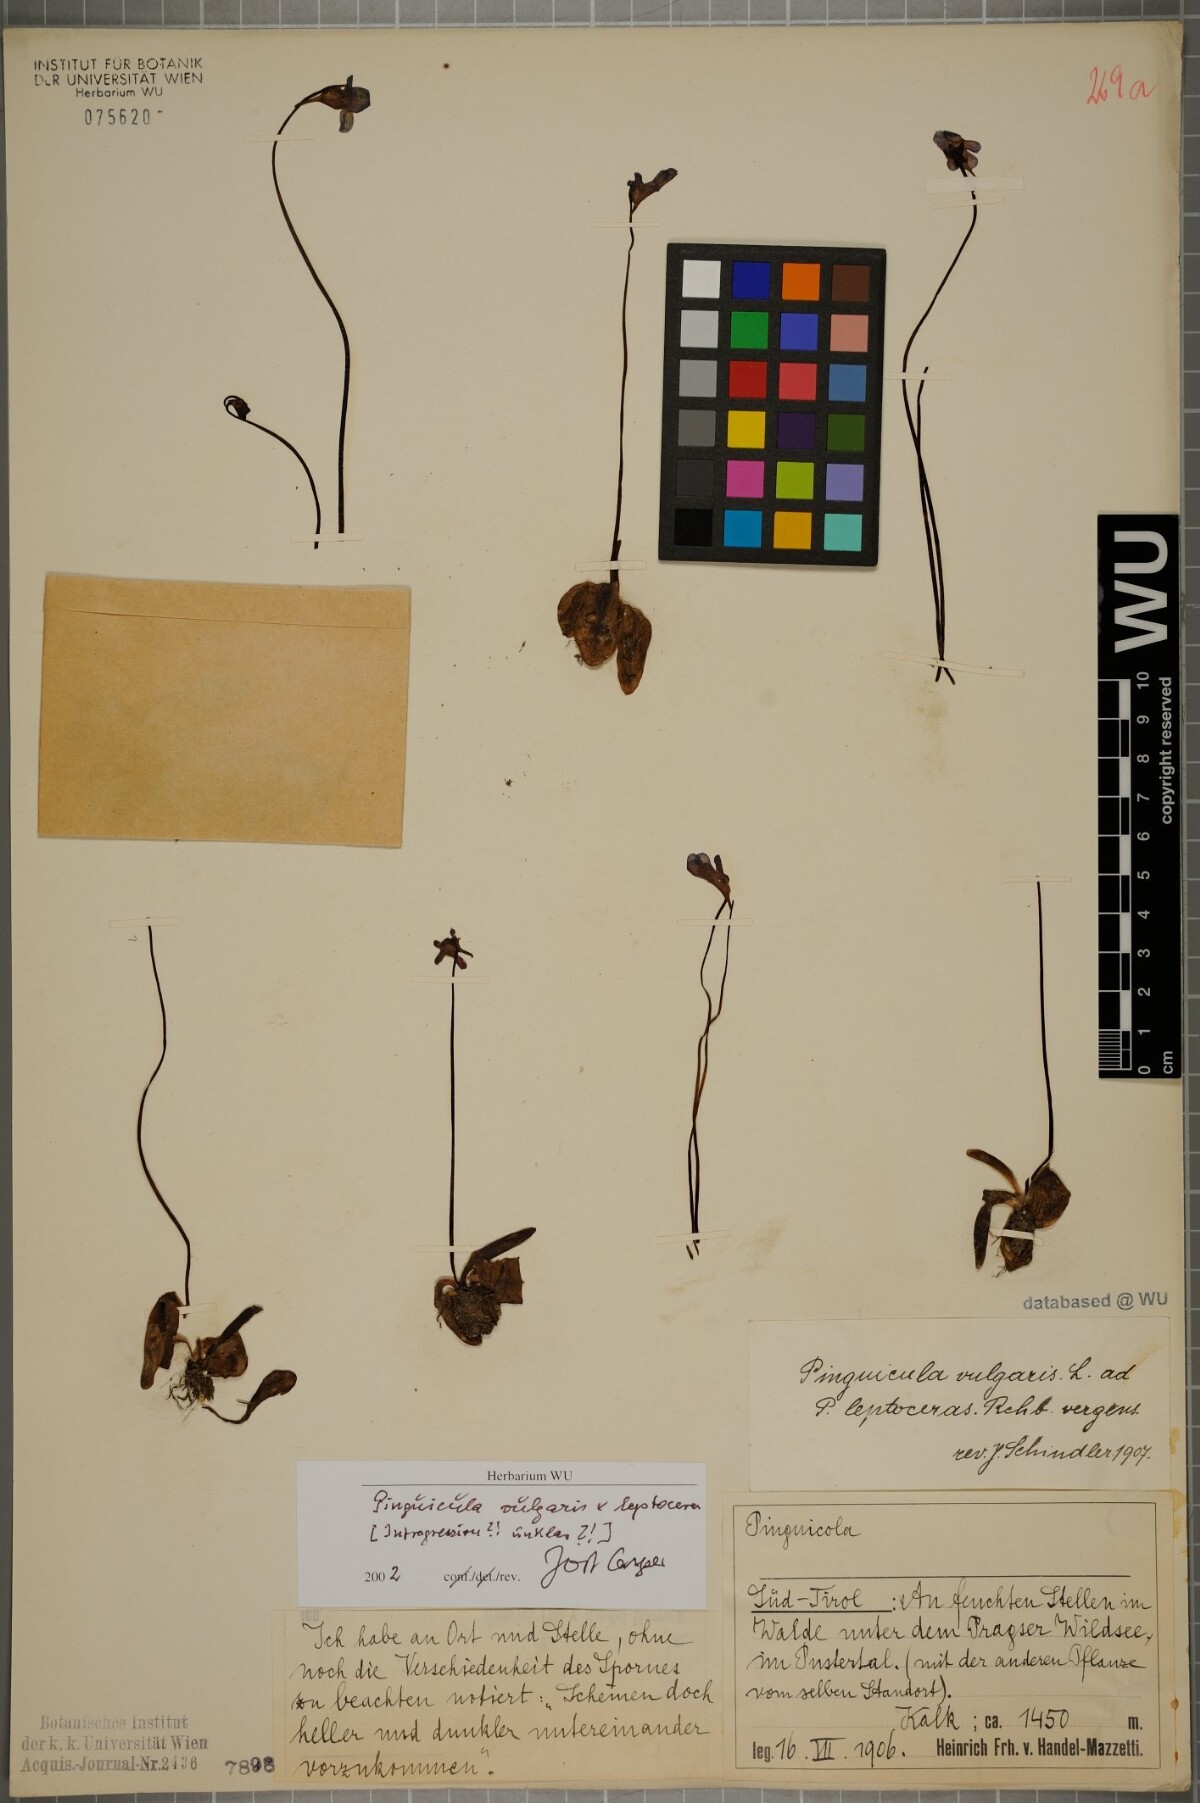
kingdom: Plantae
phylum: Tracheophyta
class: Magnoliopsida
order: Lamiales
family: Lentibulariaceae
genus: Pinguicula
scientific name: Pinguicula vulgaris
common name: Common butterwort
